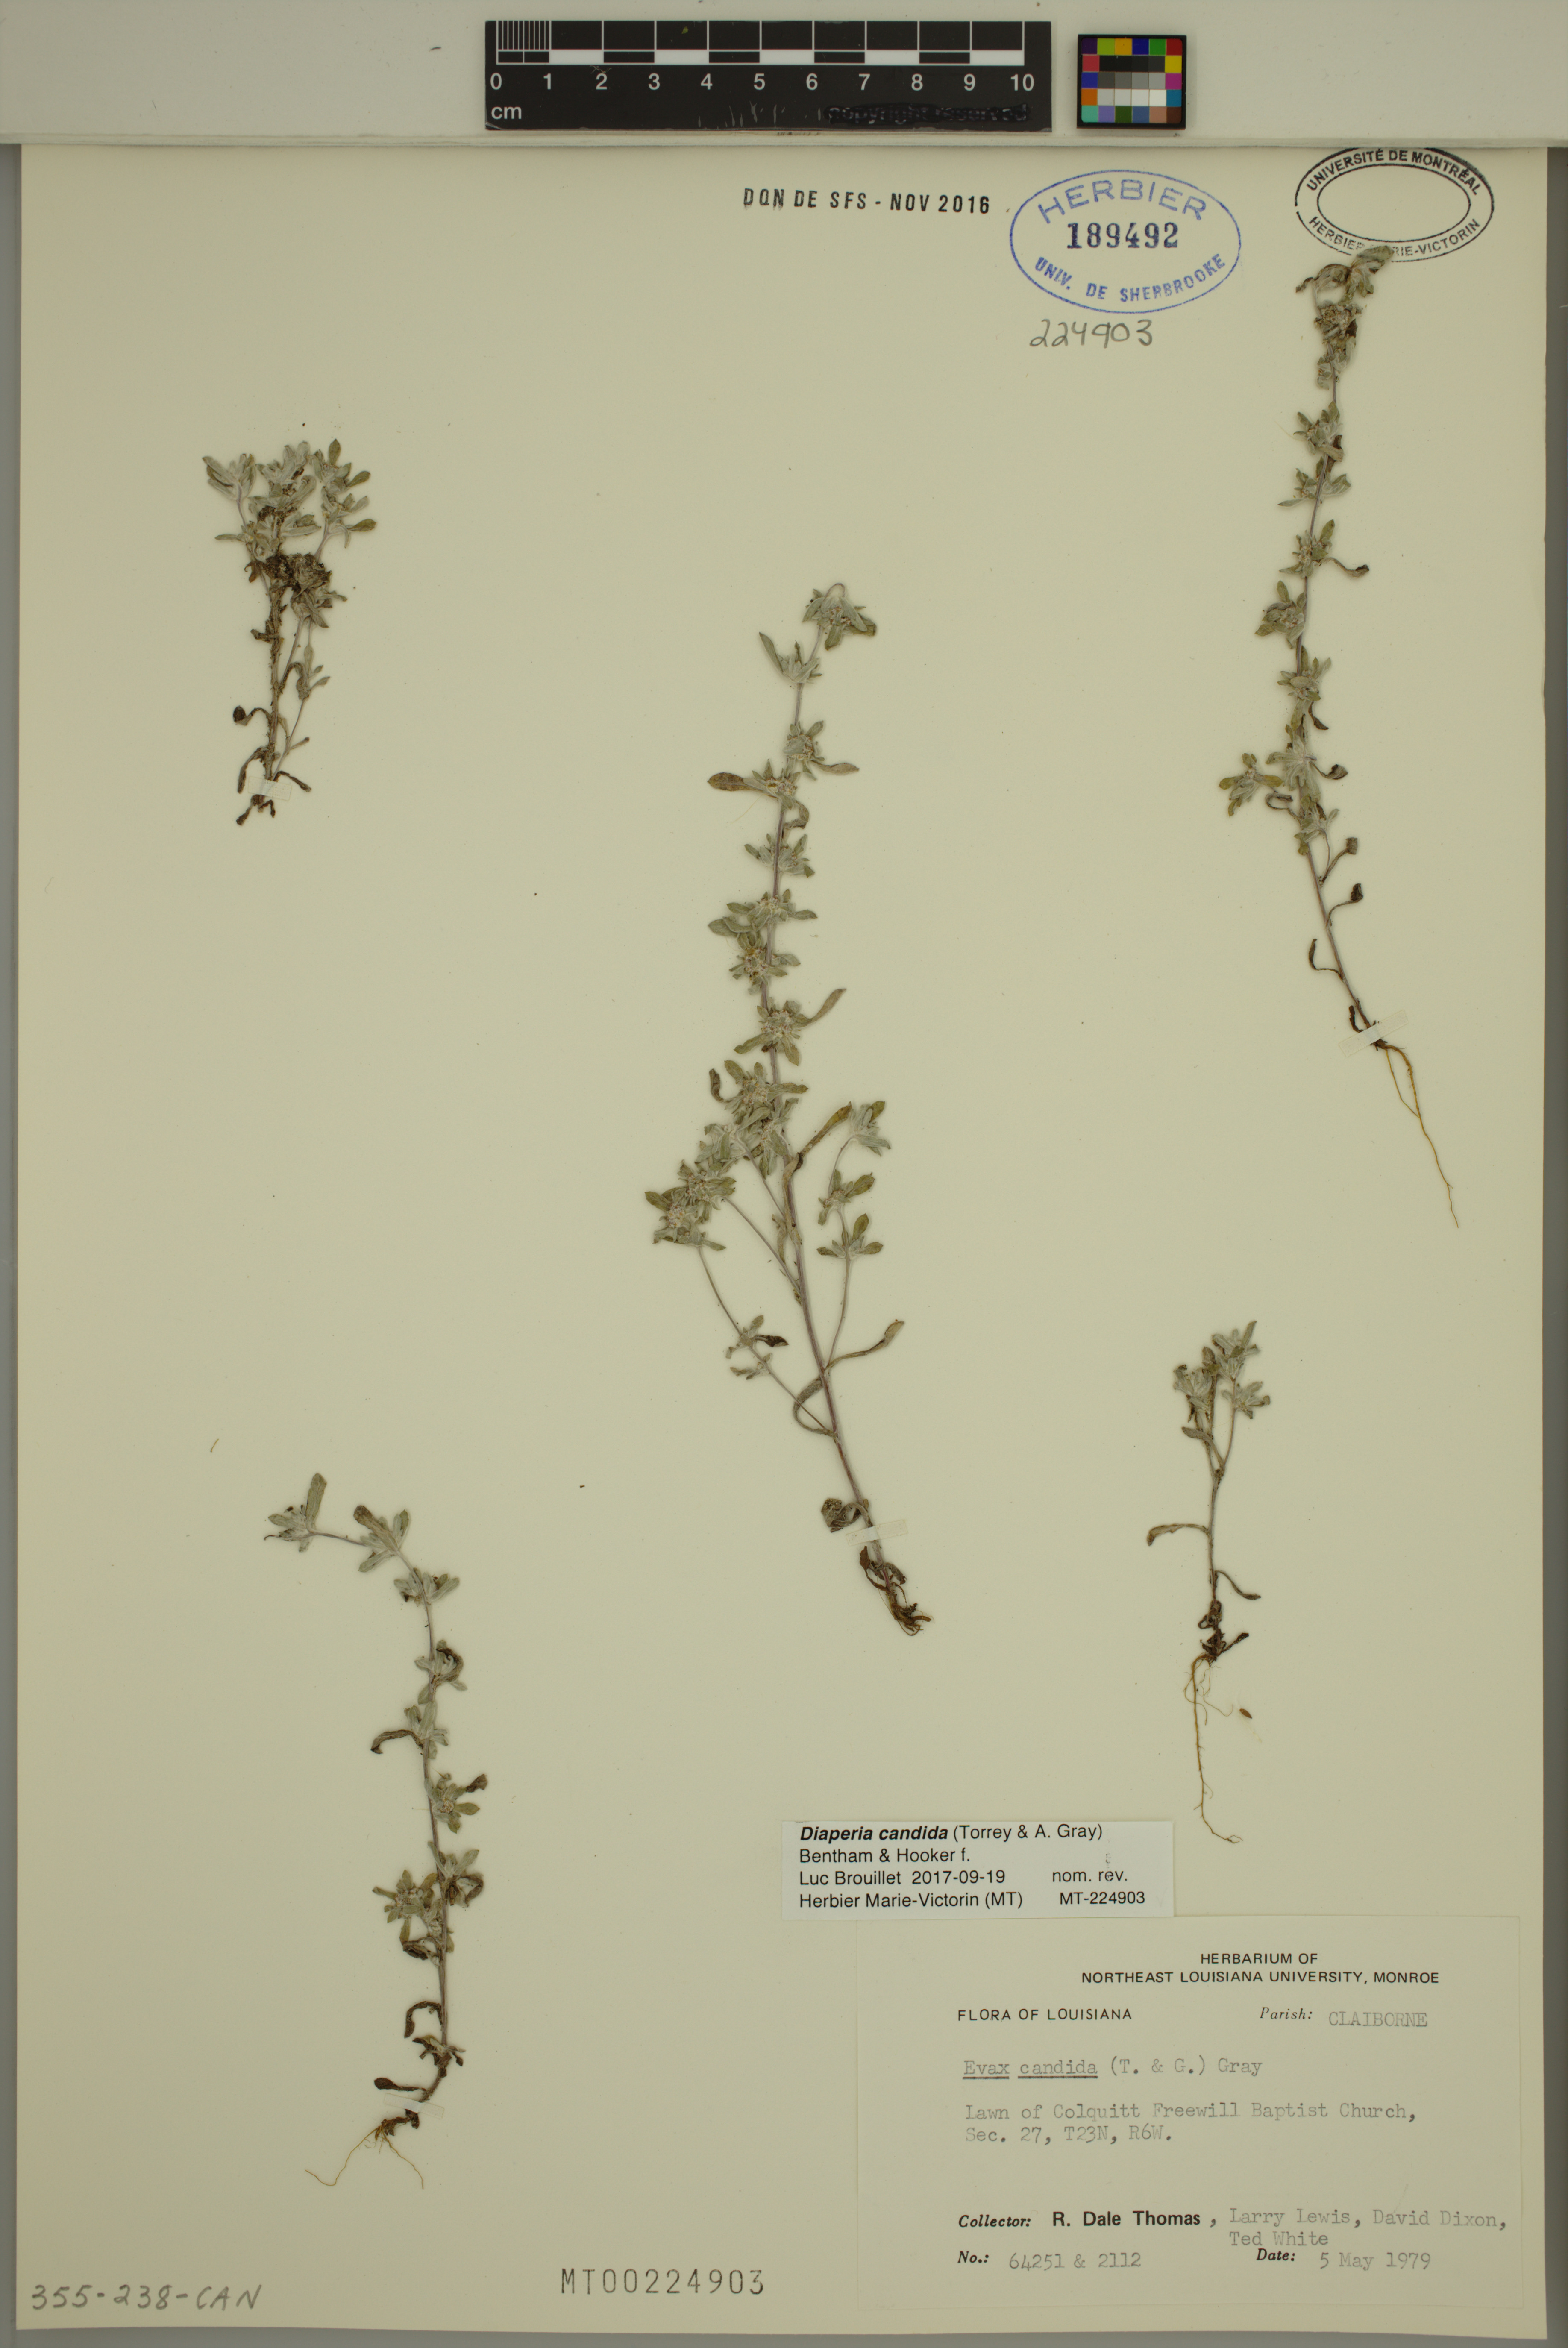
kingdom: Plantae
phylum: Tracheophyta
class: Magnoliopsida
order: Asterales
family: Asteraceae
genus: Diaperia
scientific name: Diaperia candida
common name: Silver rabbit-tobacco
